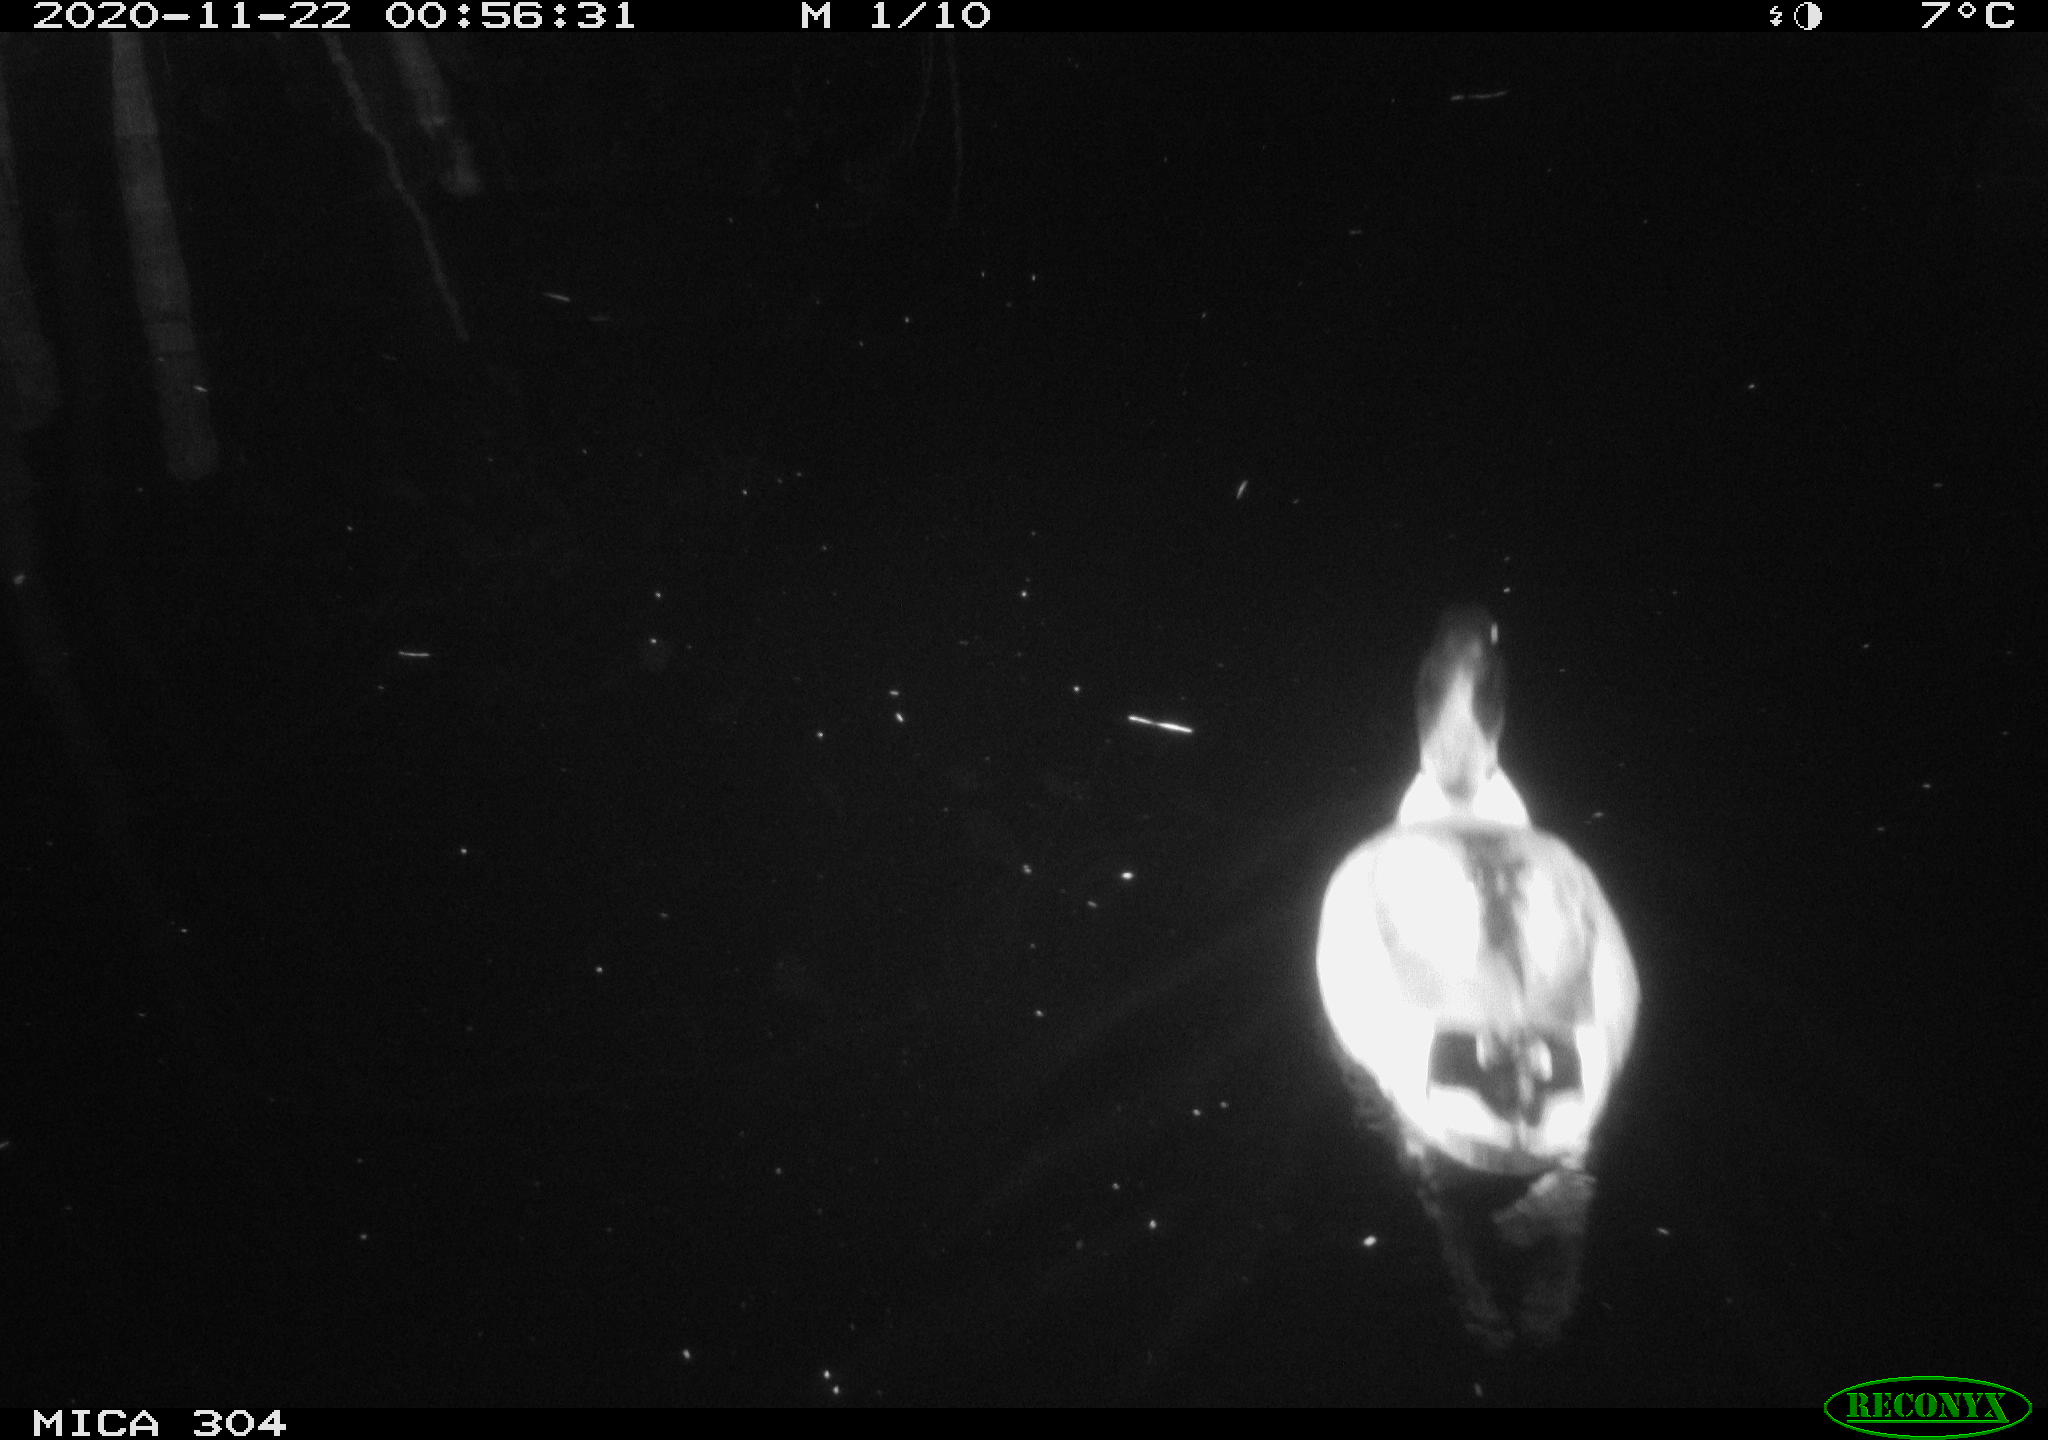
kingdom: Animalia
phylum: Chordata
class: Aves
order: Anseriformes
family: Anatidae
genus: Anas
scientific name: Anas platyrhynchos
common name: Mallard
